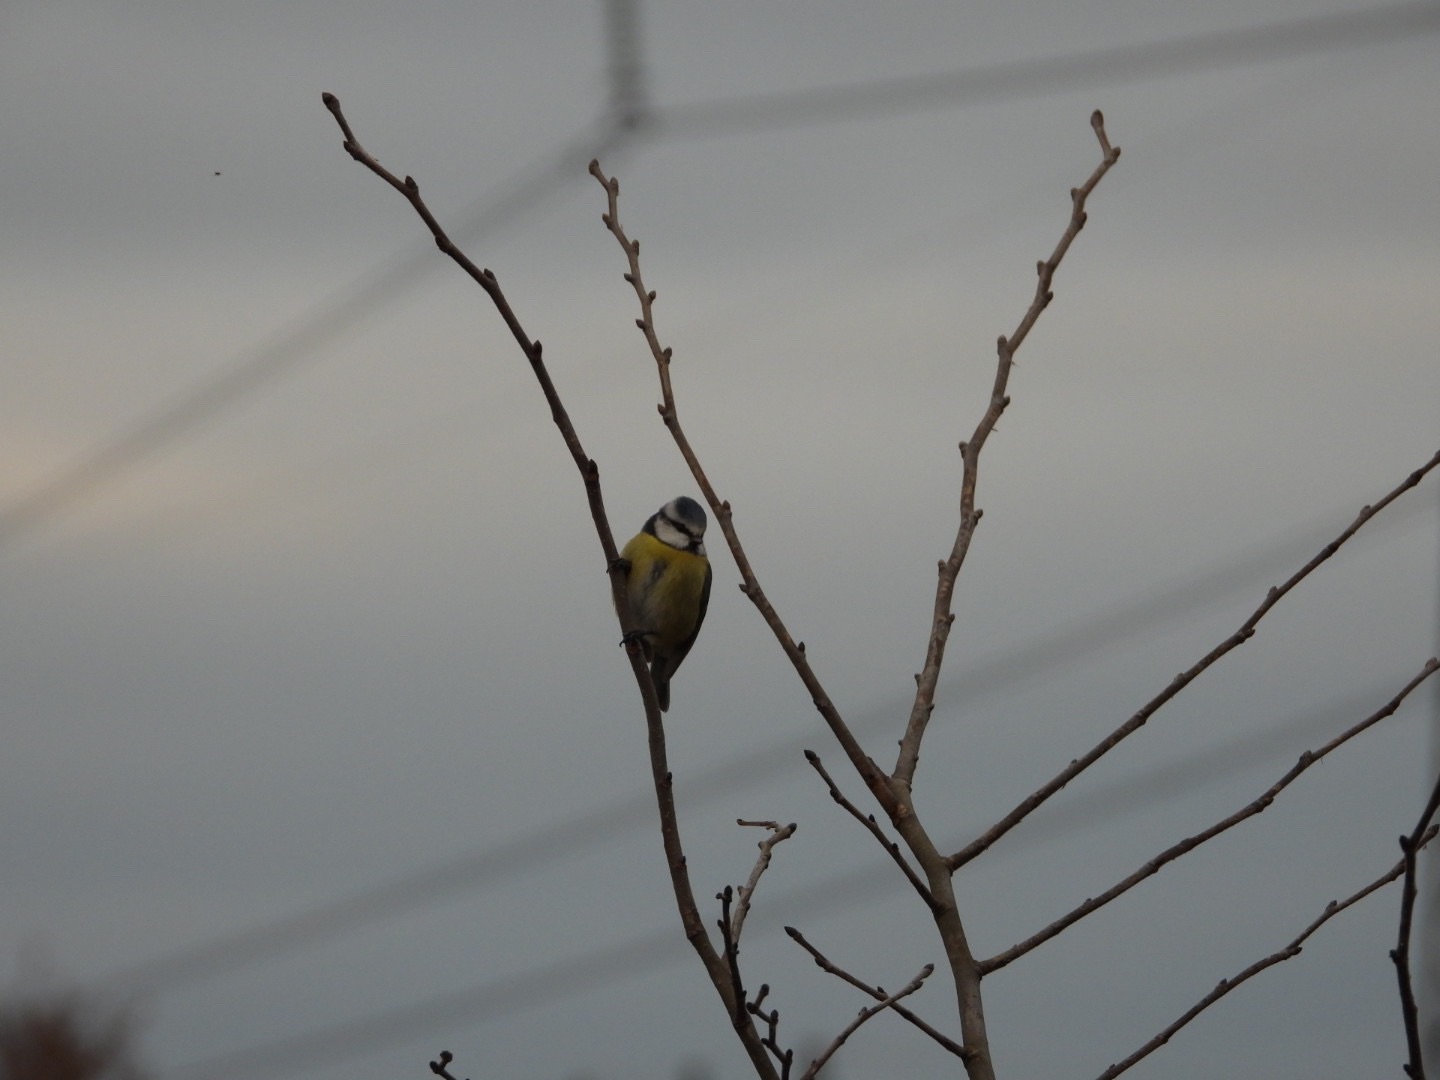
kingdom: Animalia
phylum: Chordata
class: Aves
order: Passeriformes
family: Paridae
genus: Cyanistes
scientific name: Cyanistes caeruleus
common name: Blåmejse
